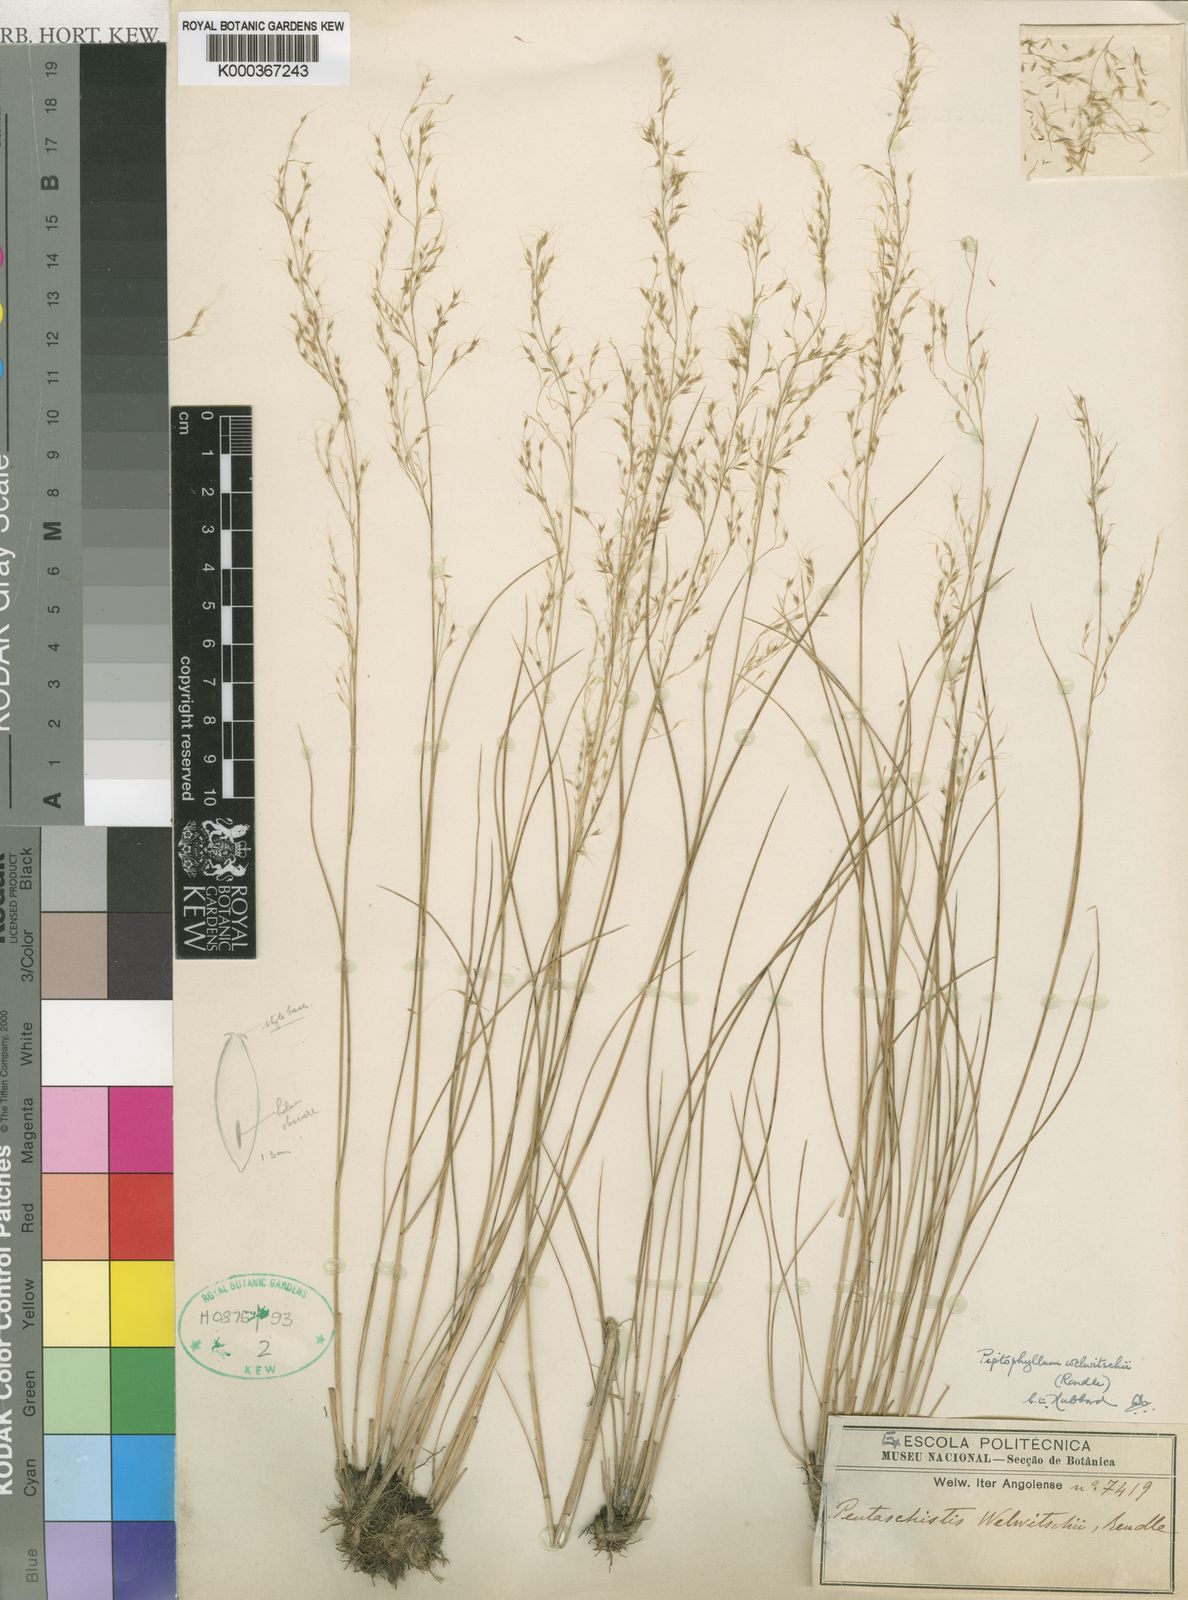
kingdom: Plantae
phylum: Tracheophyta
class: Liliopsida
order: Poales
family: Poaceae
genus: Piptophyllum
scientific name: Piptophyllum welwitschii
